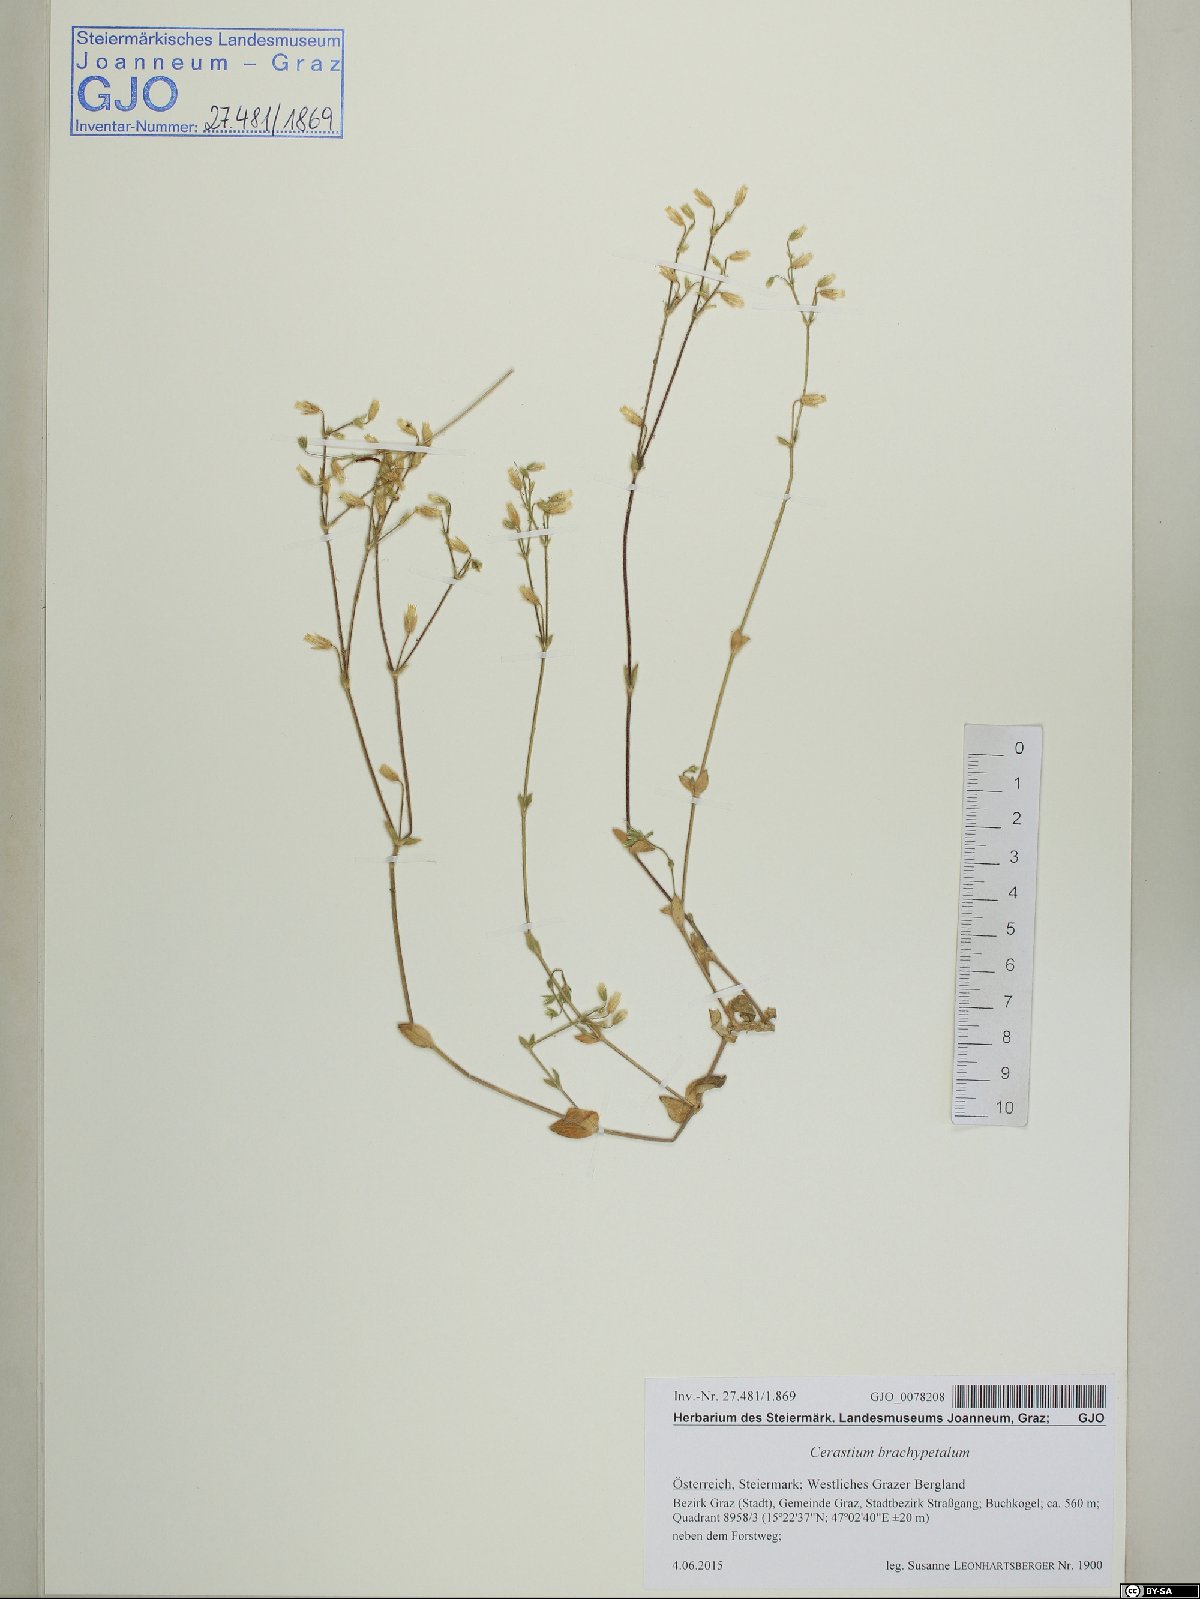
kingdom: Plantae
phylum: Tracheophyta
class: Magnoliopsida
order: Caryophyllales
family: Caryophyllaceae
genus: Cerastium
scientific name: Cerastium brachypetalum
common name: Grey mouse-ear
